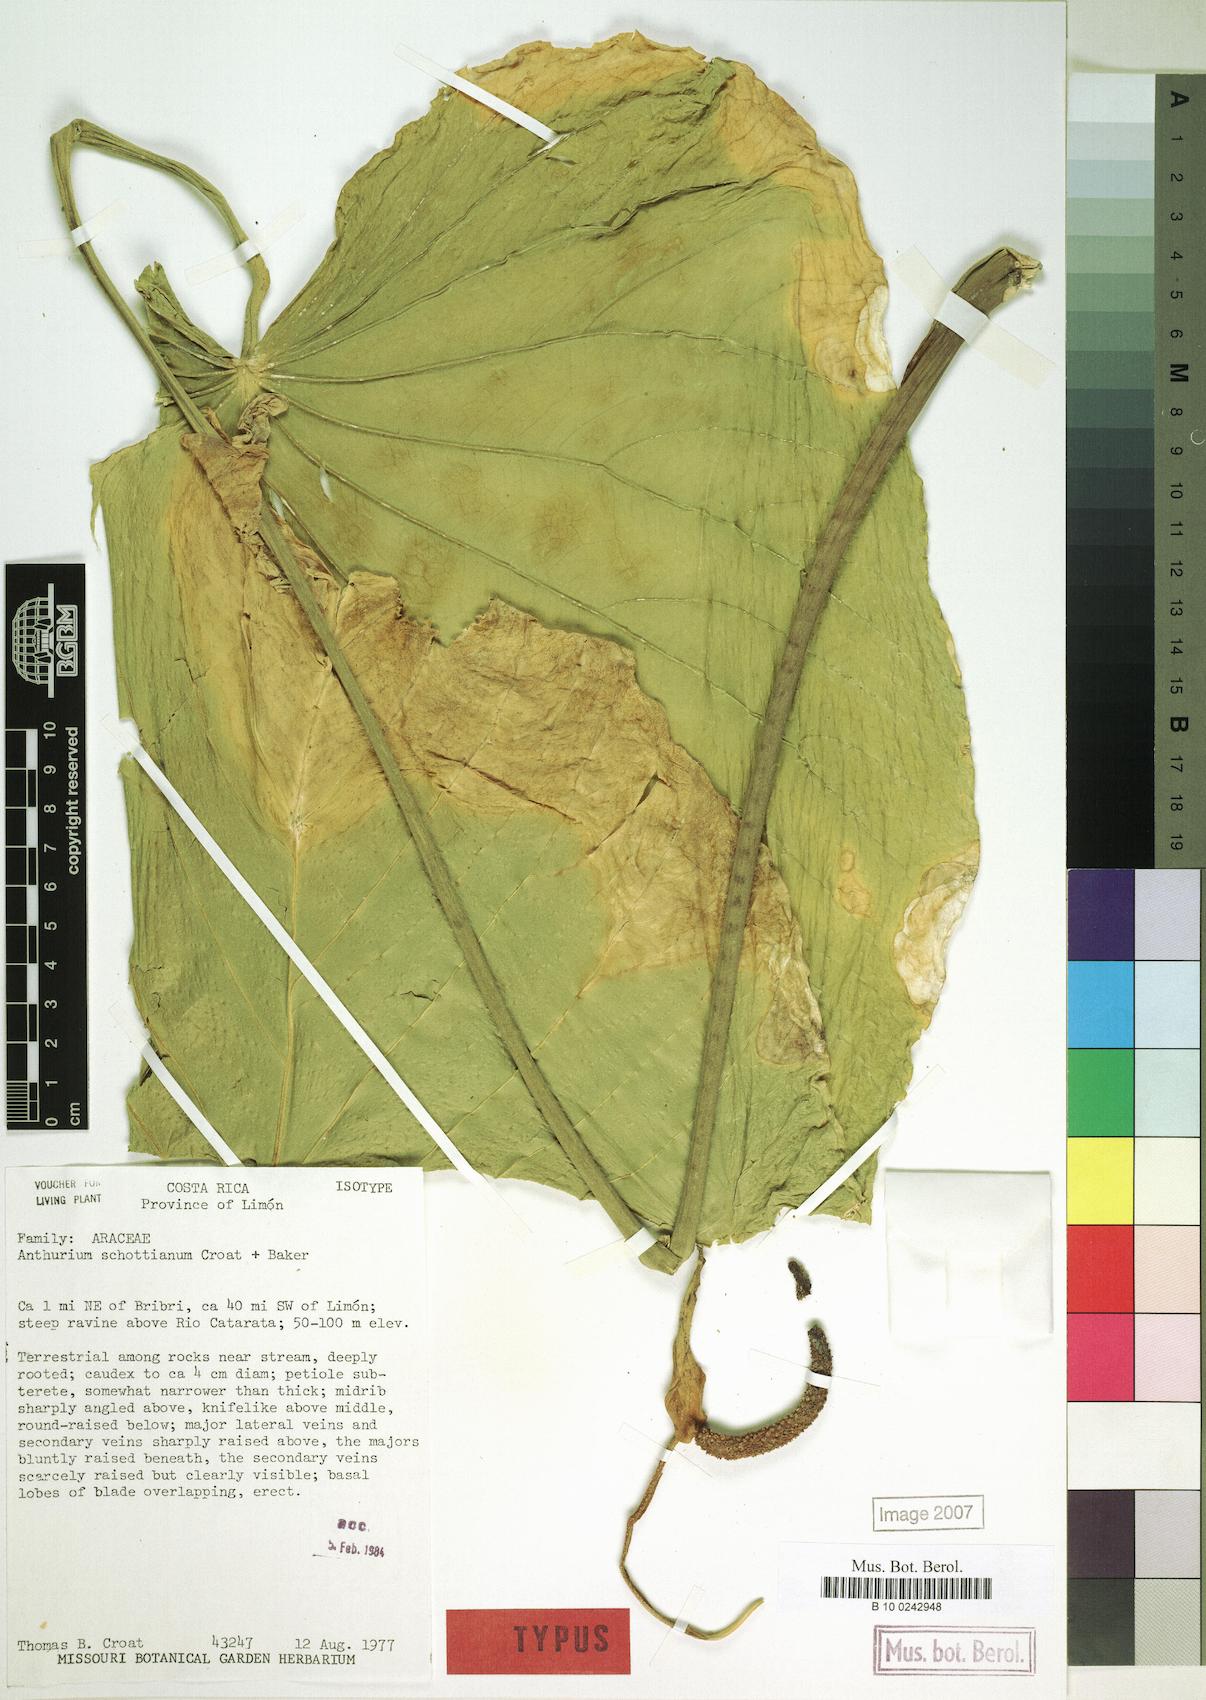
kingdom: Plantae
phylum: Tracheophyta
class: Liliopsida
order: Alismatales
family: Araceae
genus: Anthurium
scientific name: Anthurium schottianum
